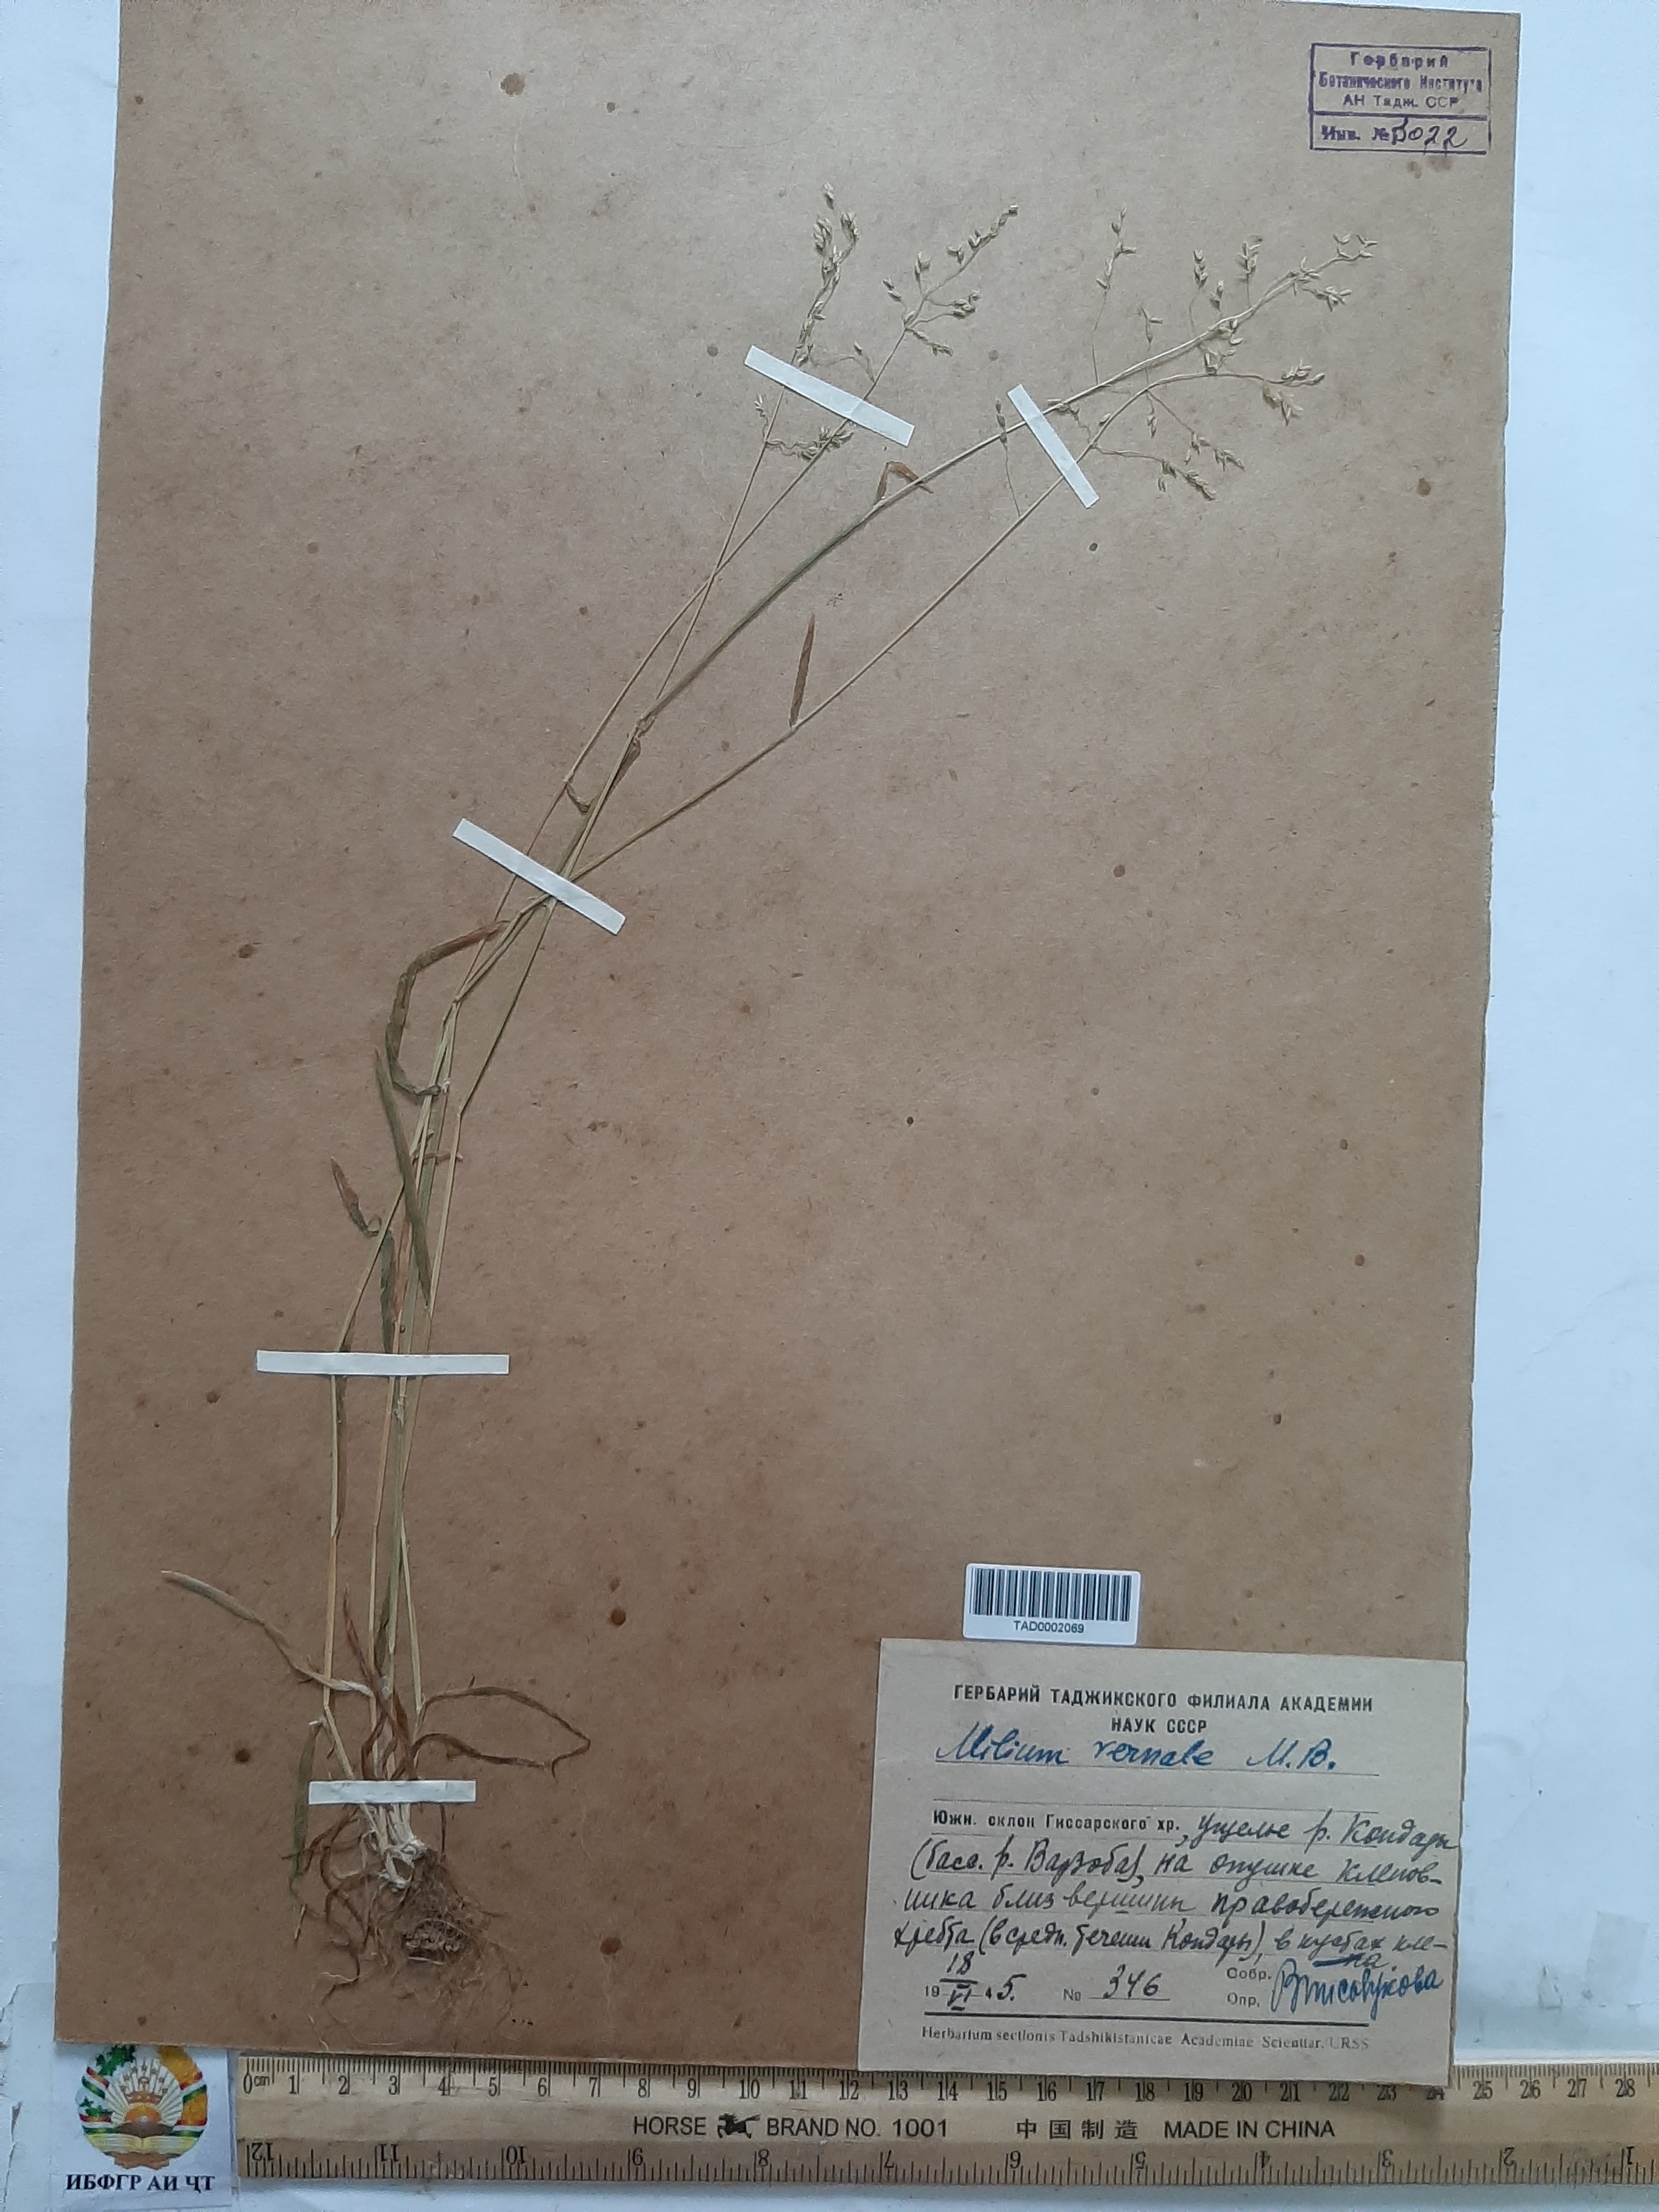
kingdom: Plantae
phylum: Tracheophyta
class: Liliopsida
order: Poales
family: Poaceae
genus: Milium
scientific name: Milium vernale
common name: Early millet
